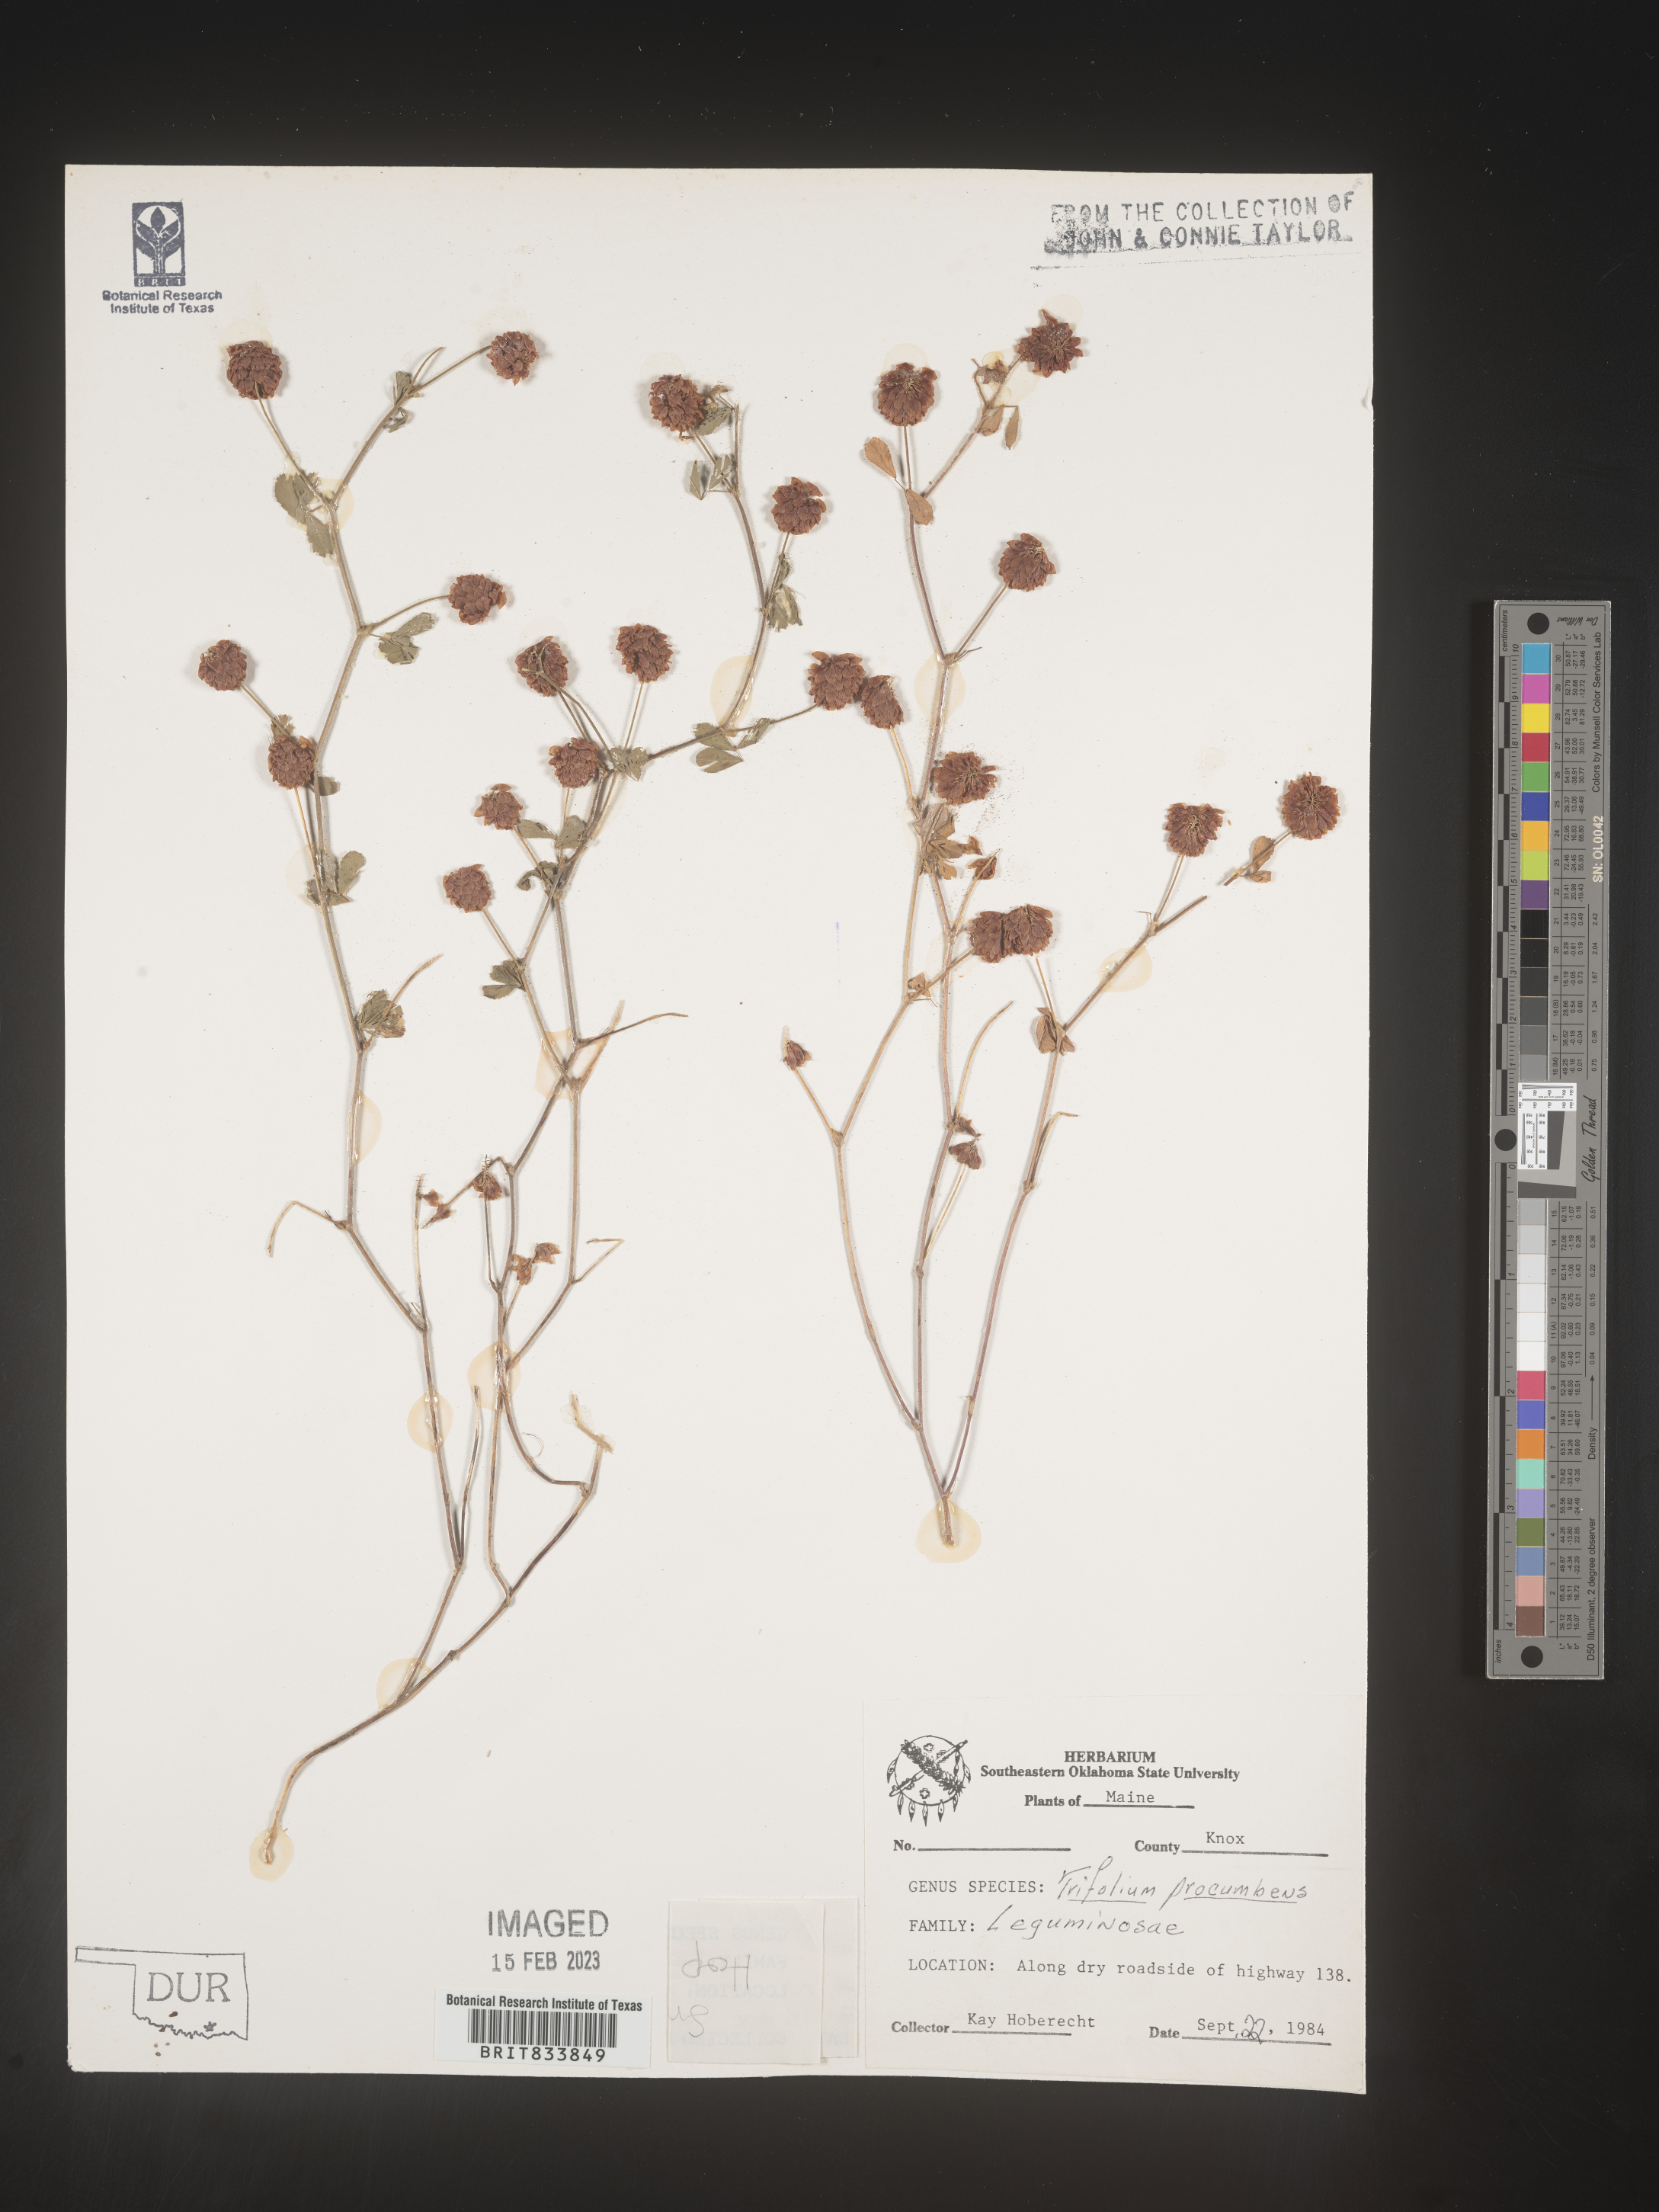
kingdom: Plantae
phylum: Tracheophyta
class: Magnoliopsida
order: Fabales
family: Fabaceae
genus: Trifolium
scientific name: Trifolium campestre
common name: Field clover
